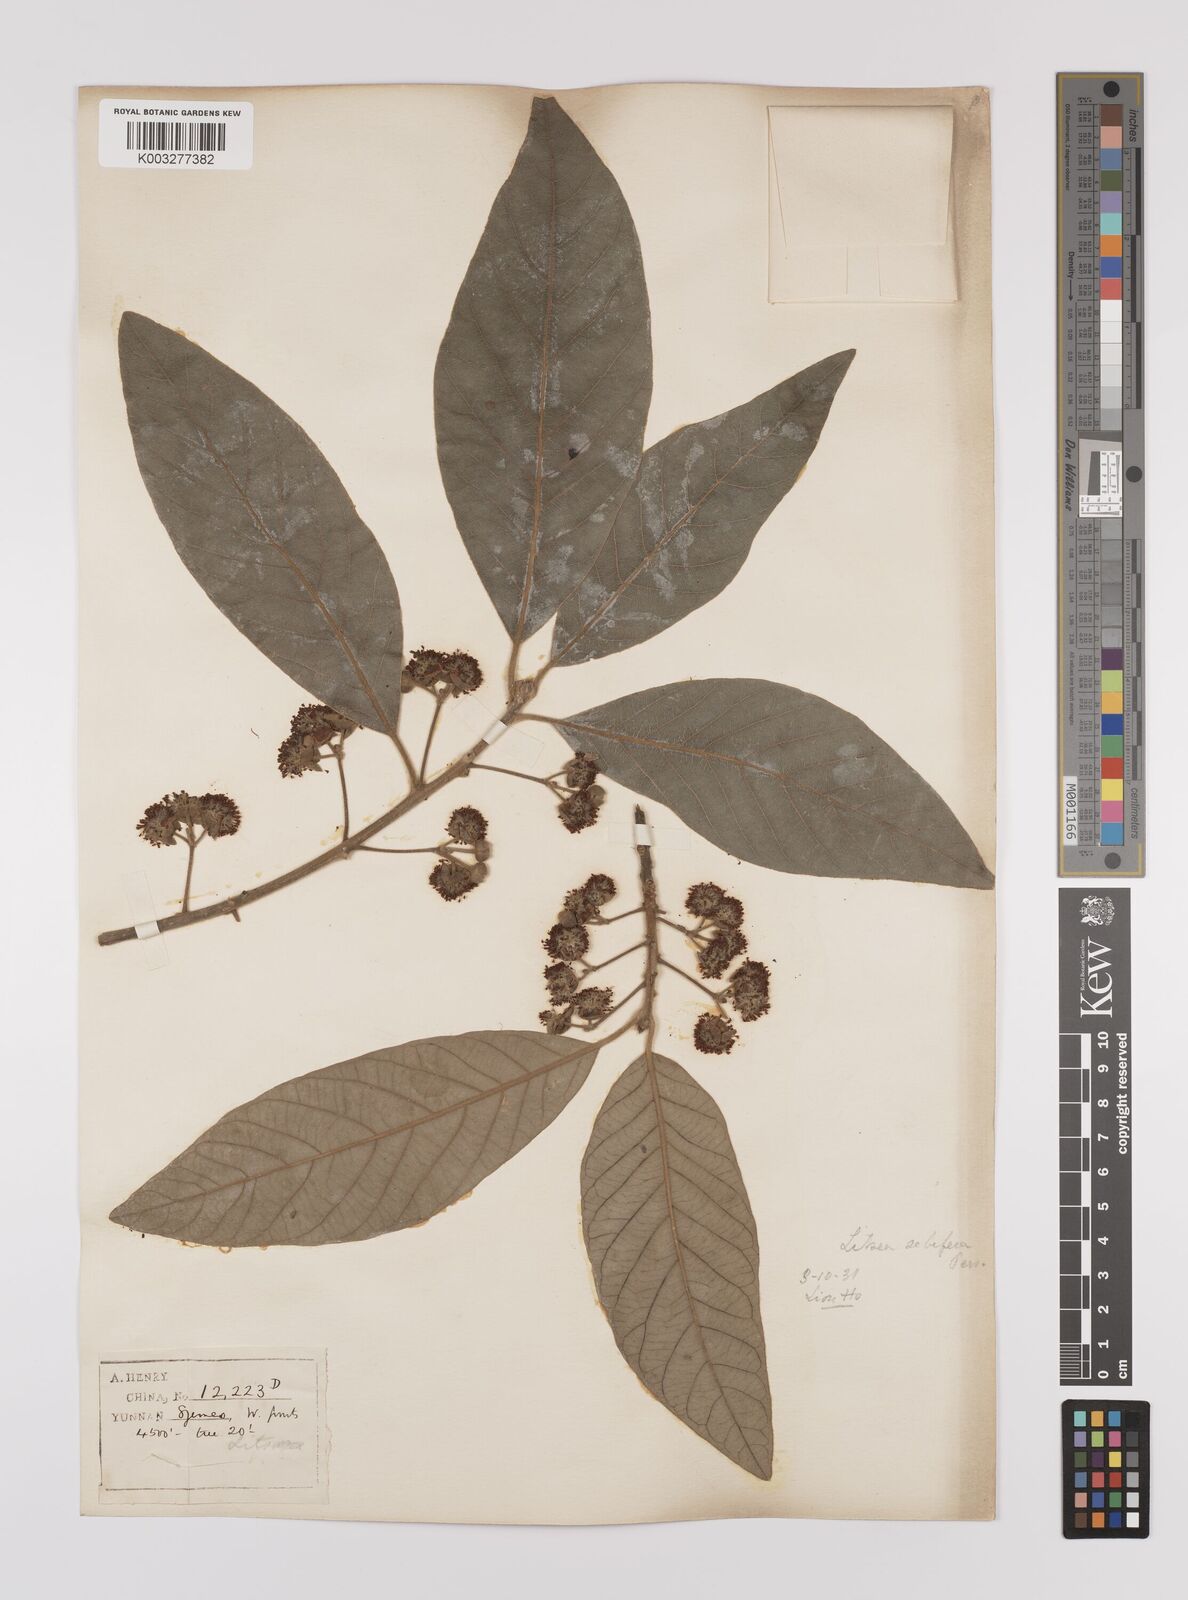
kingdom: Plantae
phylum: Tracheophyta
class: Magnoliopsida
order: Laurales
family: Lauraceae
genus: Litsea
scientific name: Litsea glutinosa
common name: Indian-laurel
